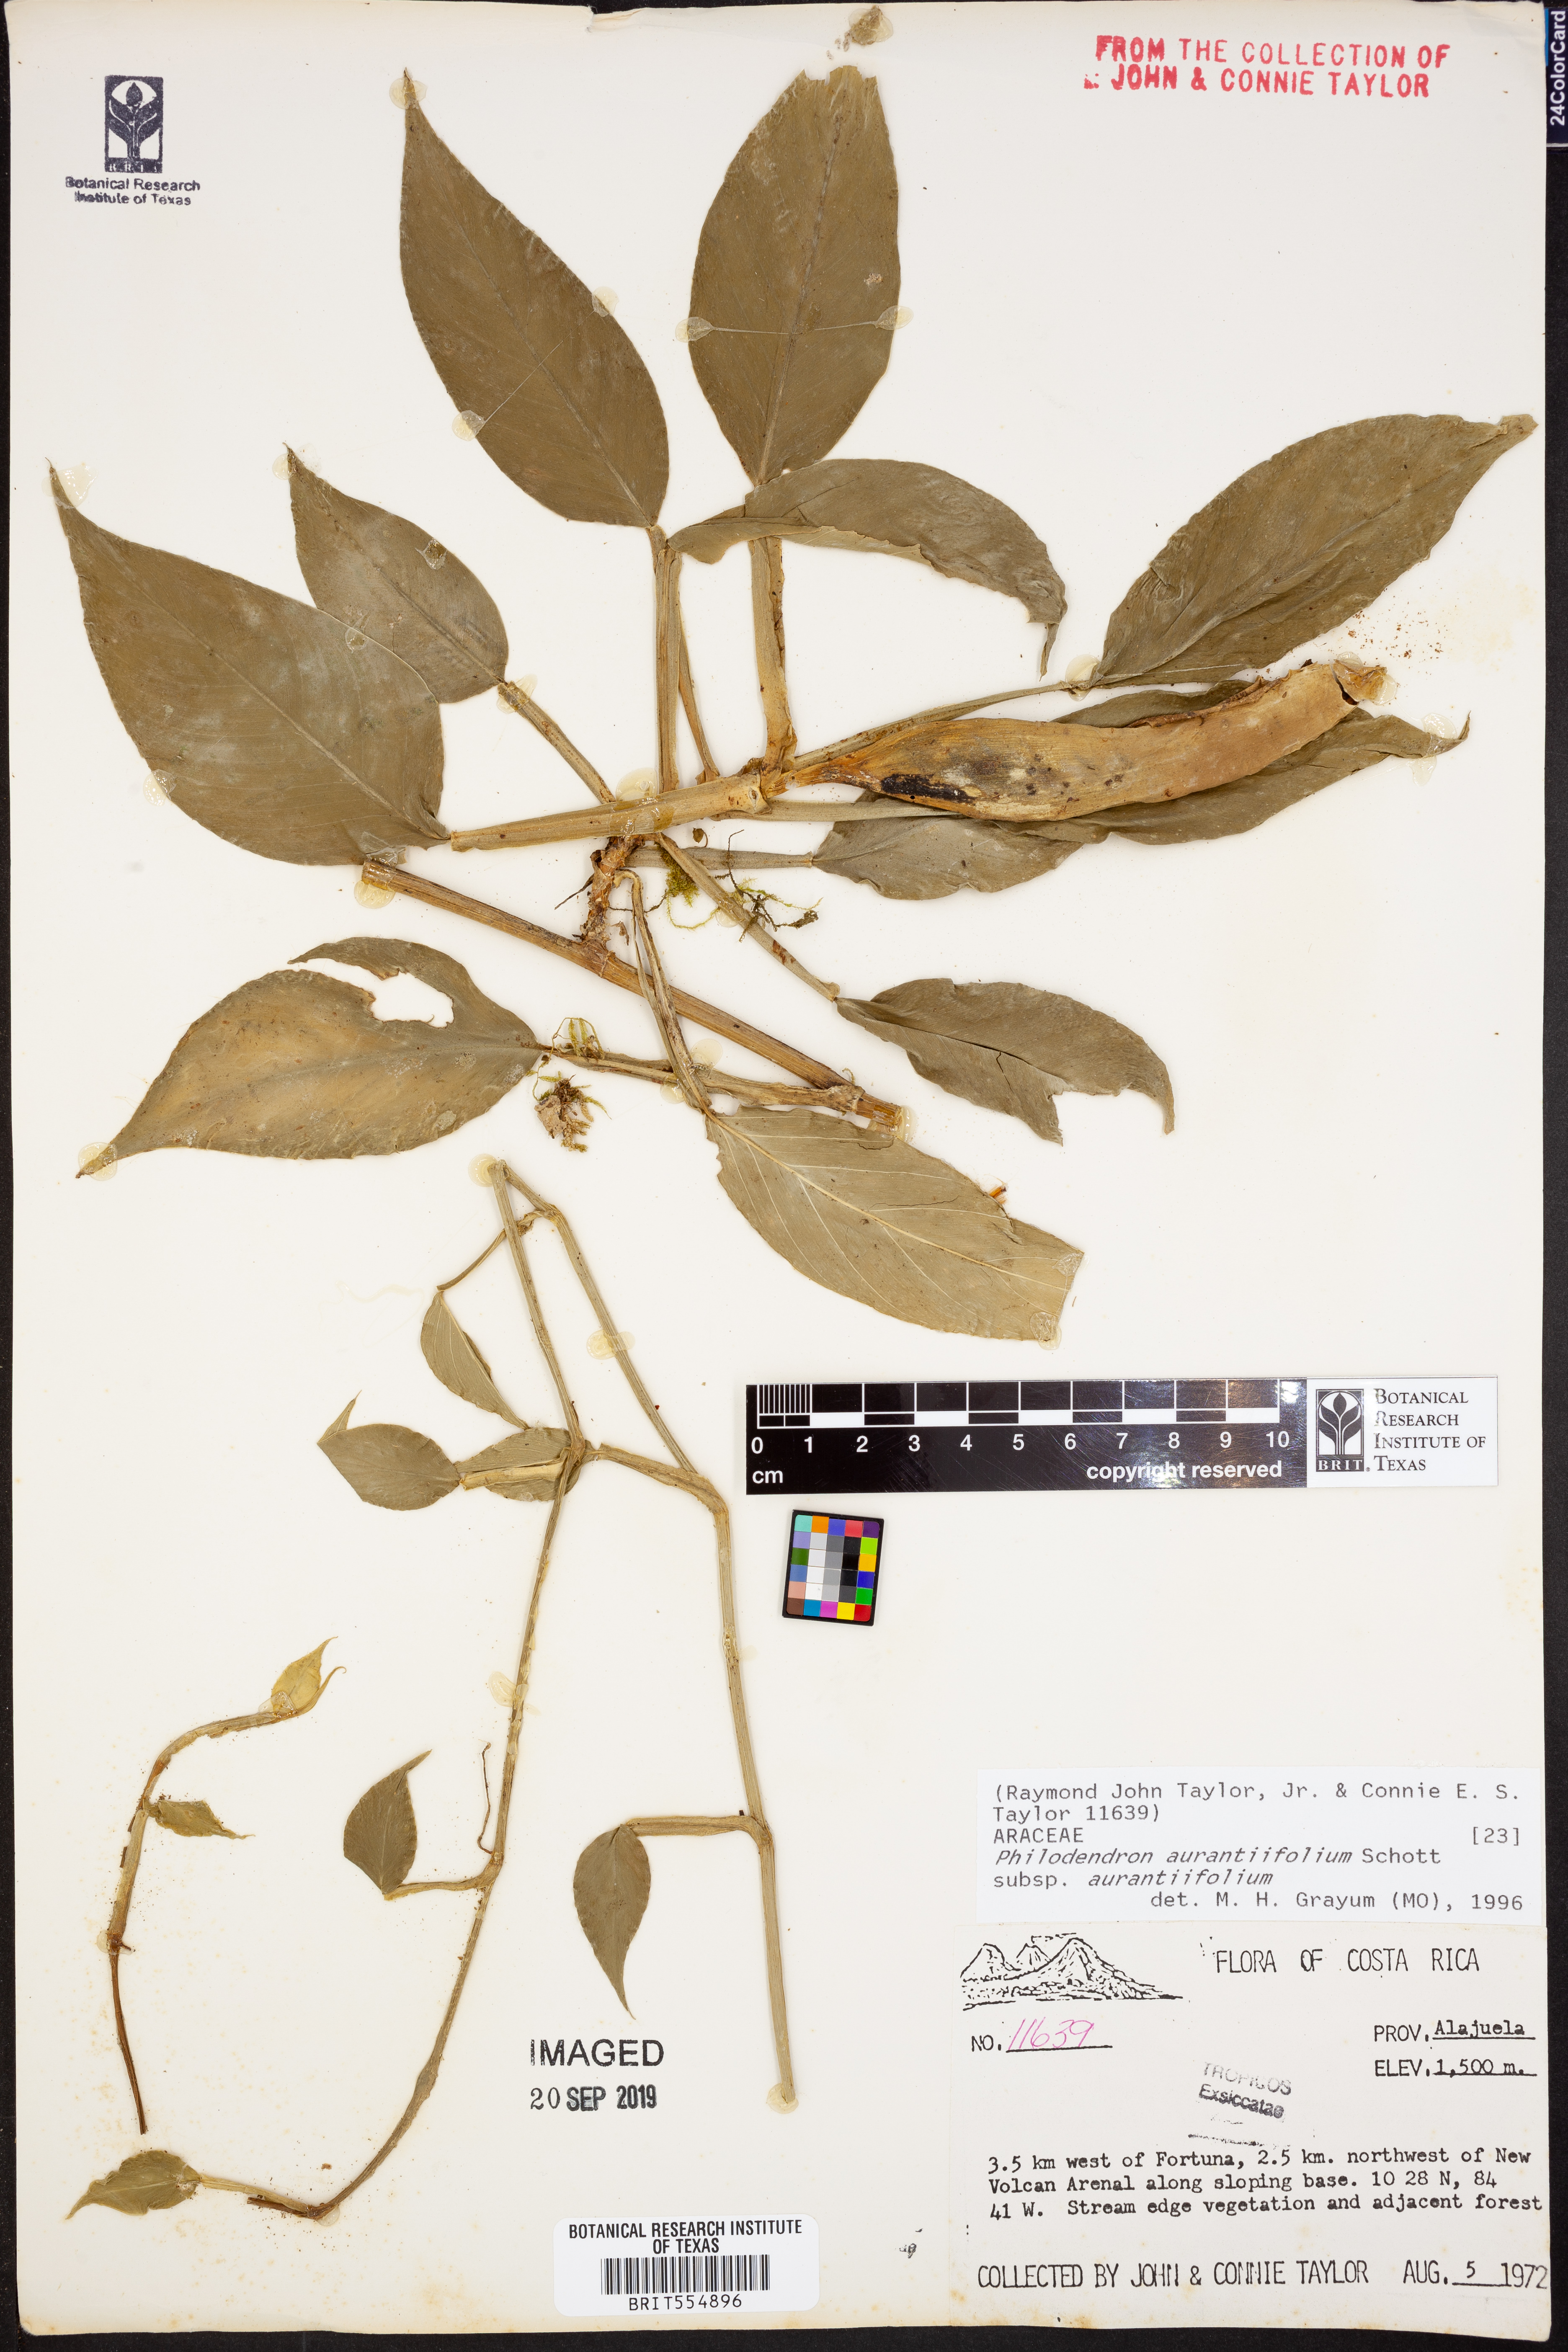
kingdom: Plantae
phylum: Tracheophyta
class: Liliopsida
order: Alismatales
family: Araceae
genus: Philodendron
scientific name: Philodendron aurantiifolium
